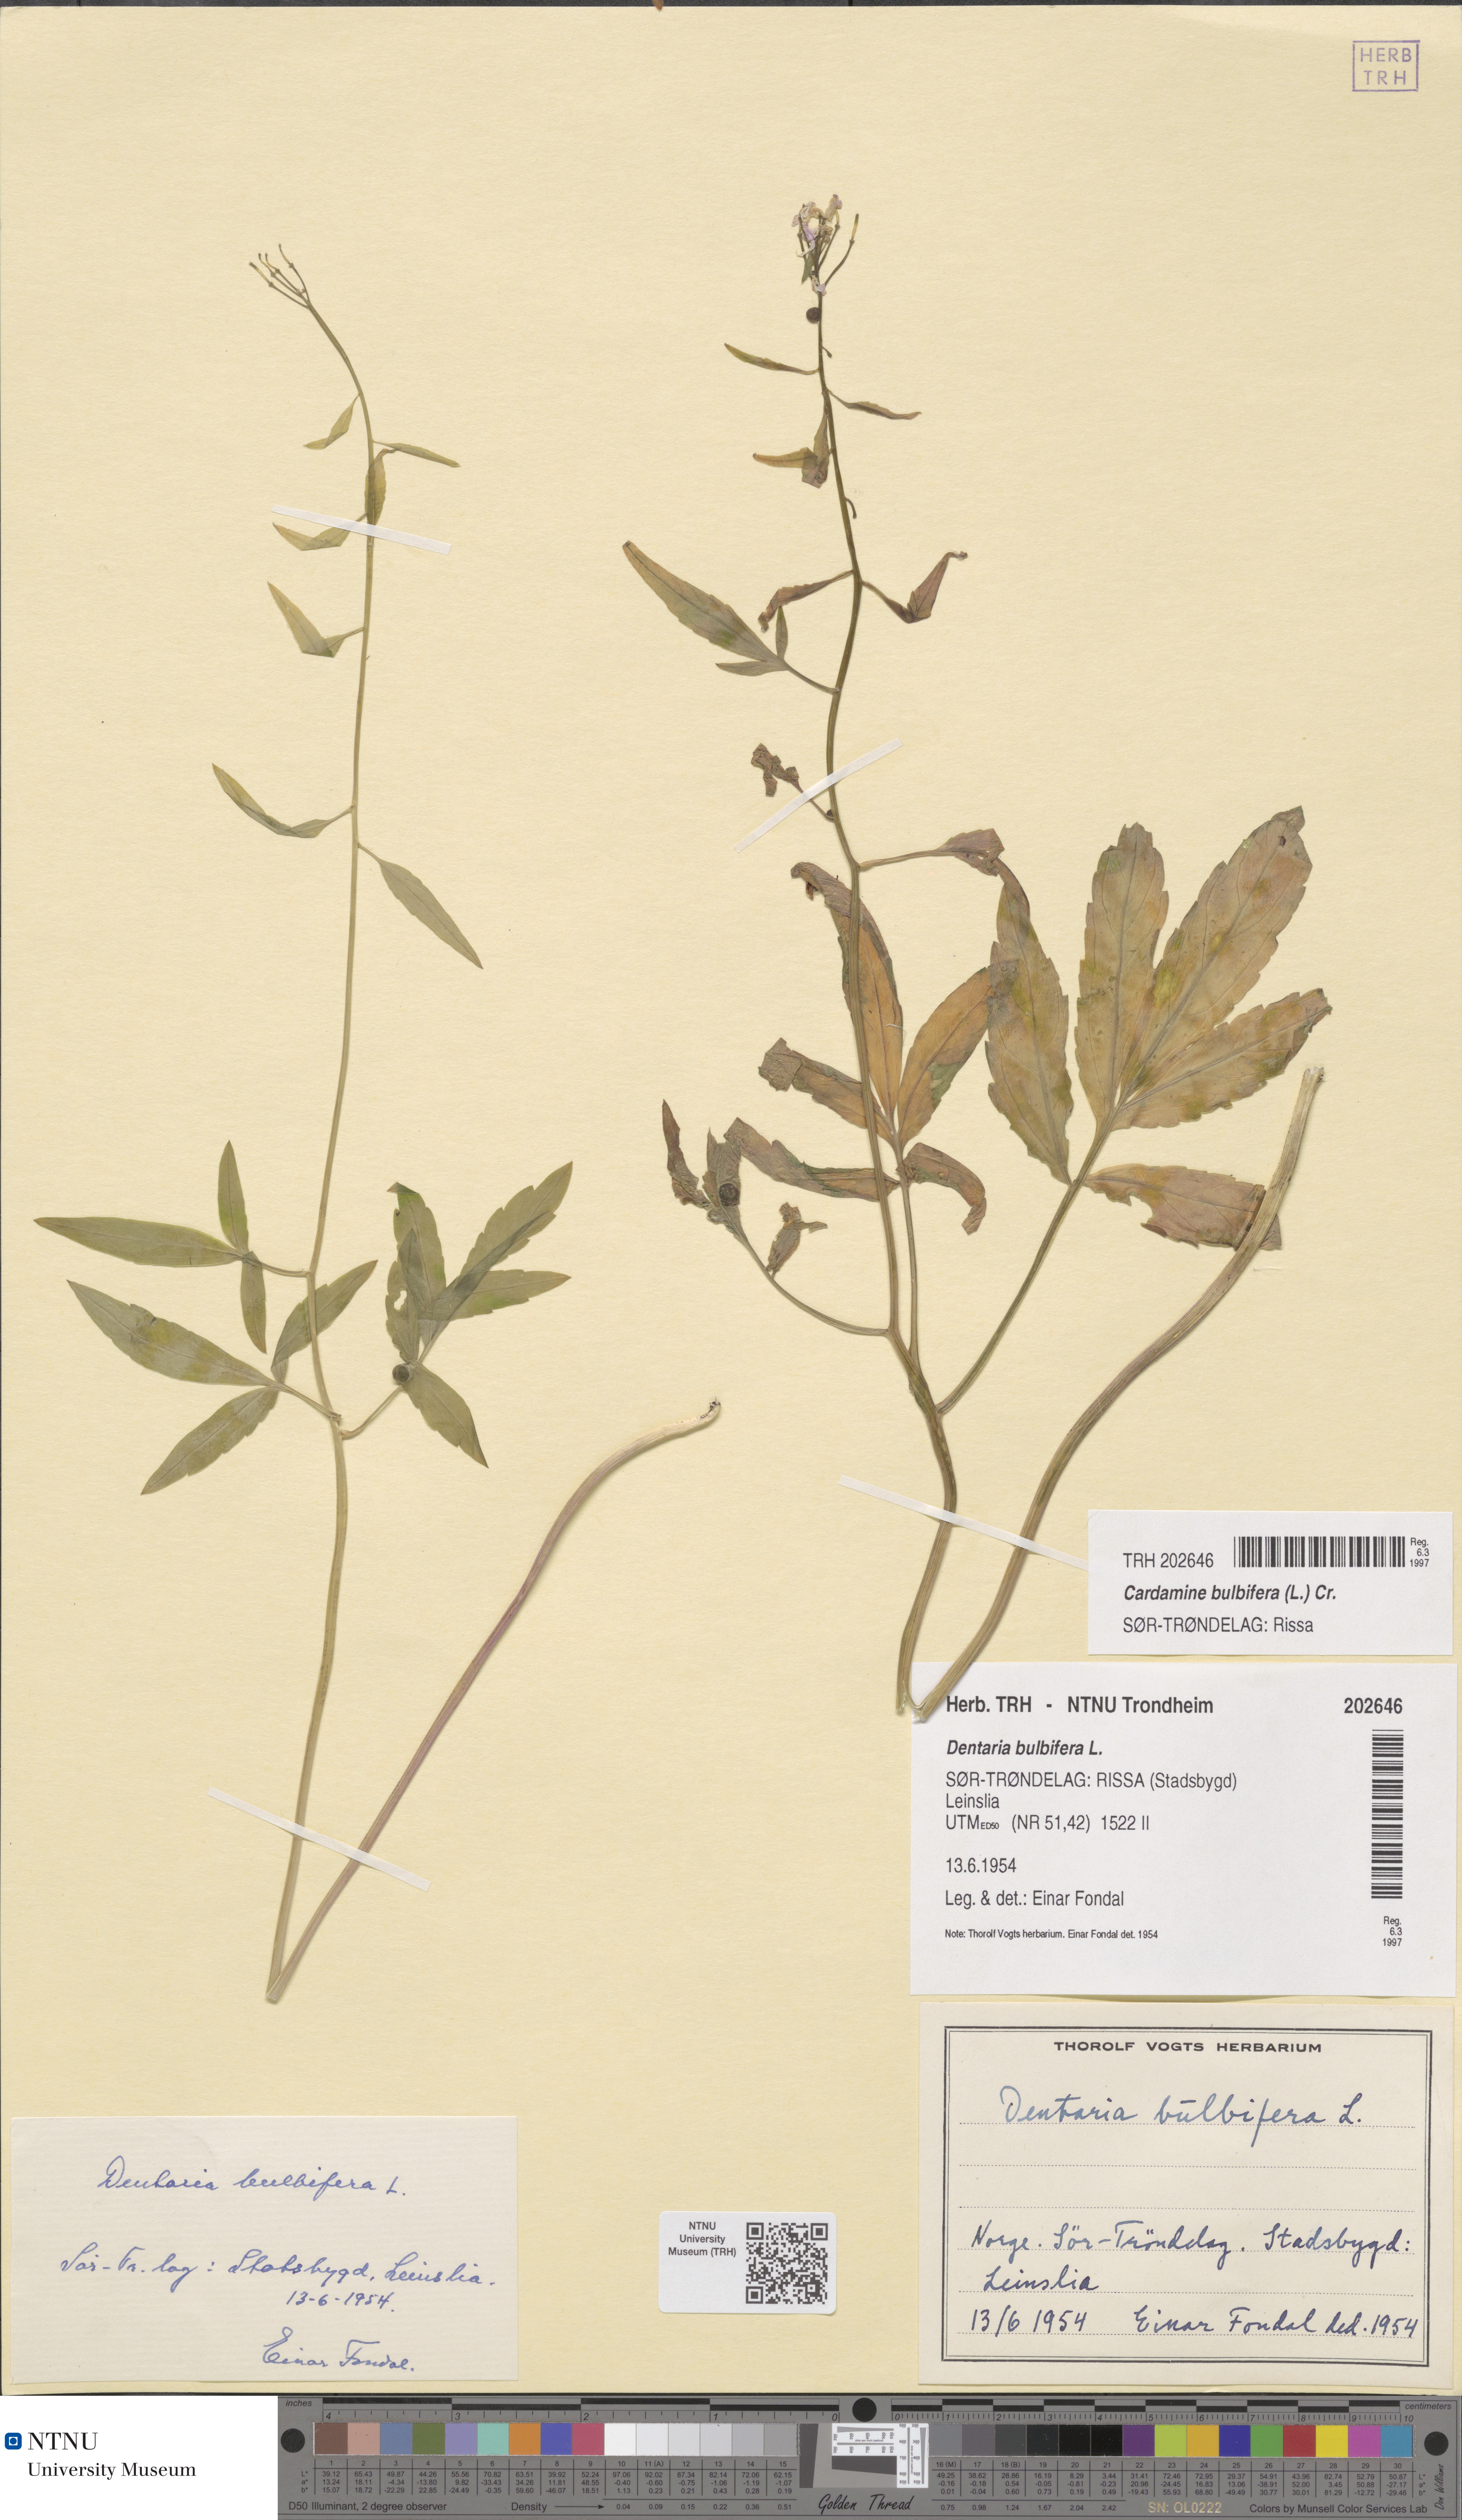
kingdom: Plantae
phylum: Tracheophyta
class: Magnoliopsida
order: Brassicales
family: Brassicaceae
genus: Cardamine
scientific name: Cardamine bulbifera
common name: Coralroot bittercress
